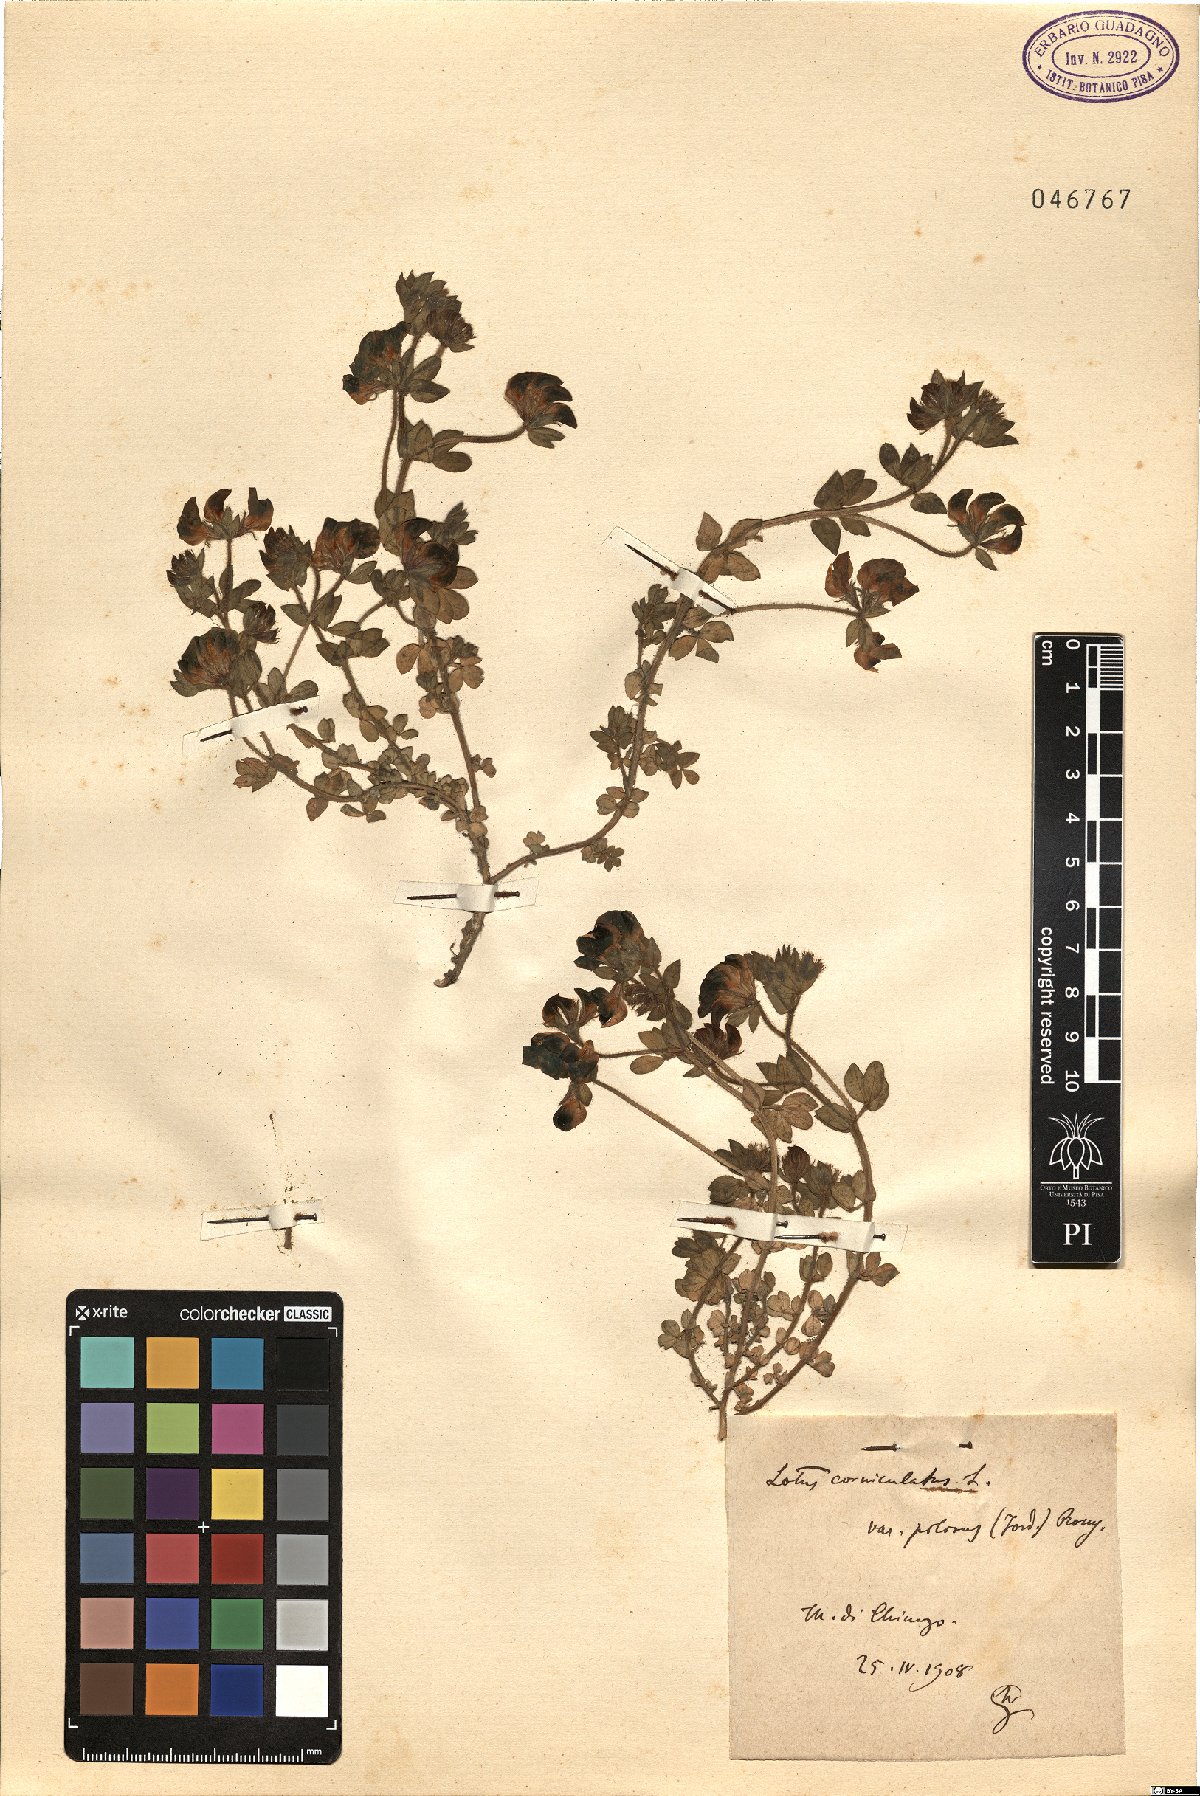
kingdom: Plantae
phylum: Tracheophyta
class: Magnoliopsida
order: Fabales
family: Fabaceae
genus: Lotus
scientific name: Lotus corniculatus
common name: Common bird's-foot-trefoil
